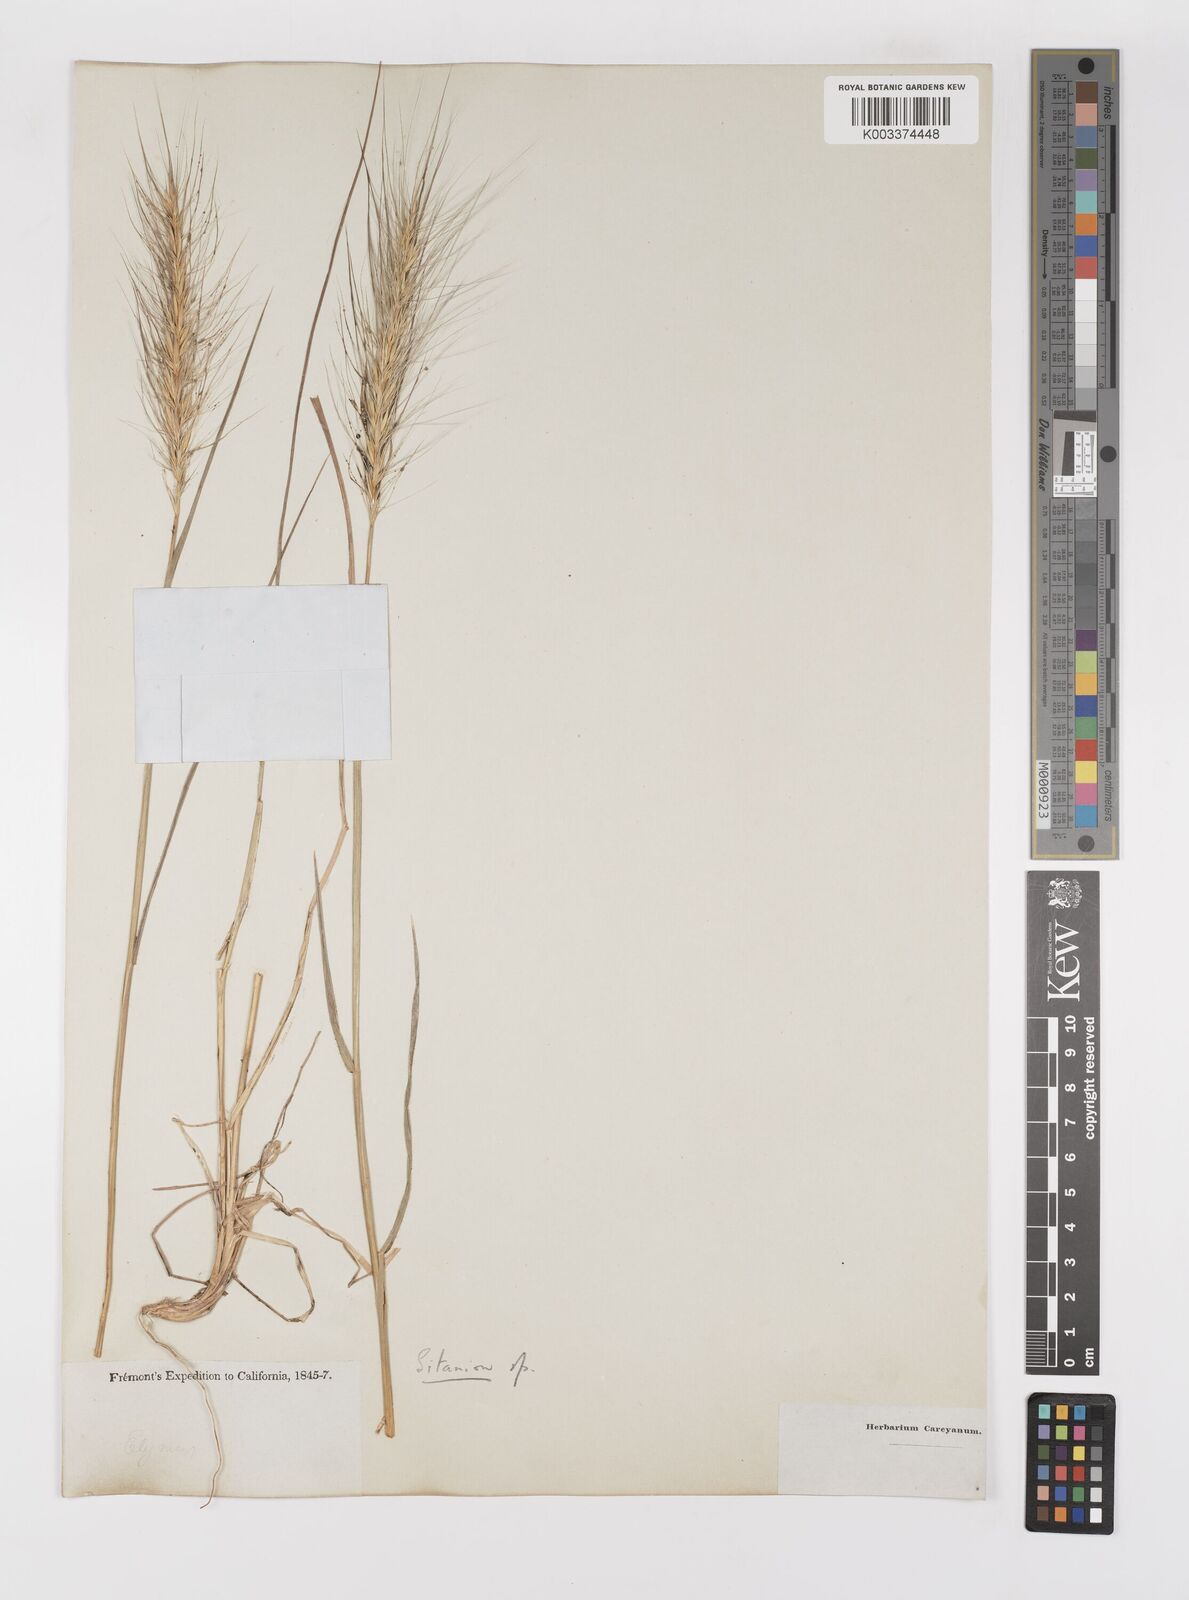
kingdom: Plantae
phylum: Tracheophyta
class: Liliopsida
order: Poales
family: Poaceae
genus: Elymus
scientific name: Elymus multisetus
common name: Big squirreltail
